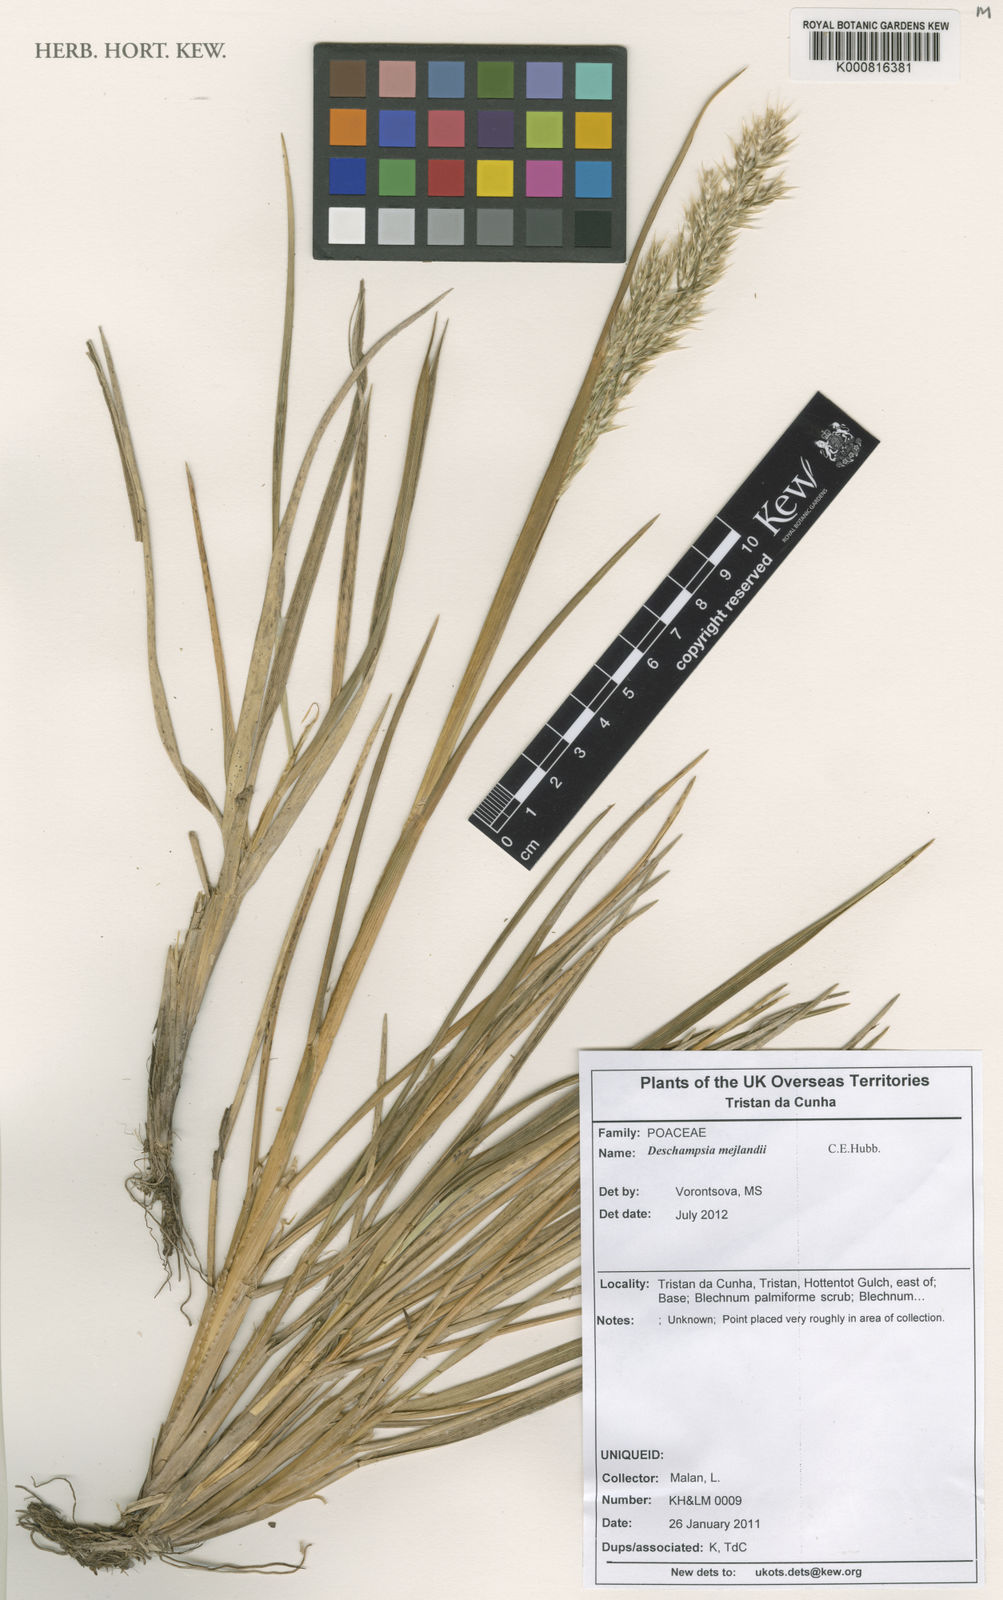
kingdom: Plantae
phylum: Tracheophyta
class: Liliopsida
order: Poales
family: Poaceae
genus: Deschampsia
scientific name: Deschampsia mejlandii
